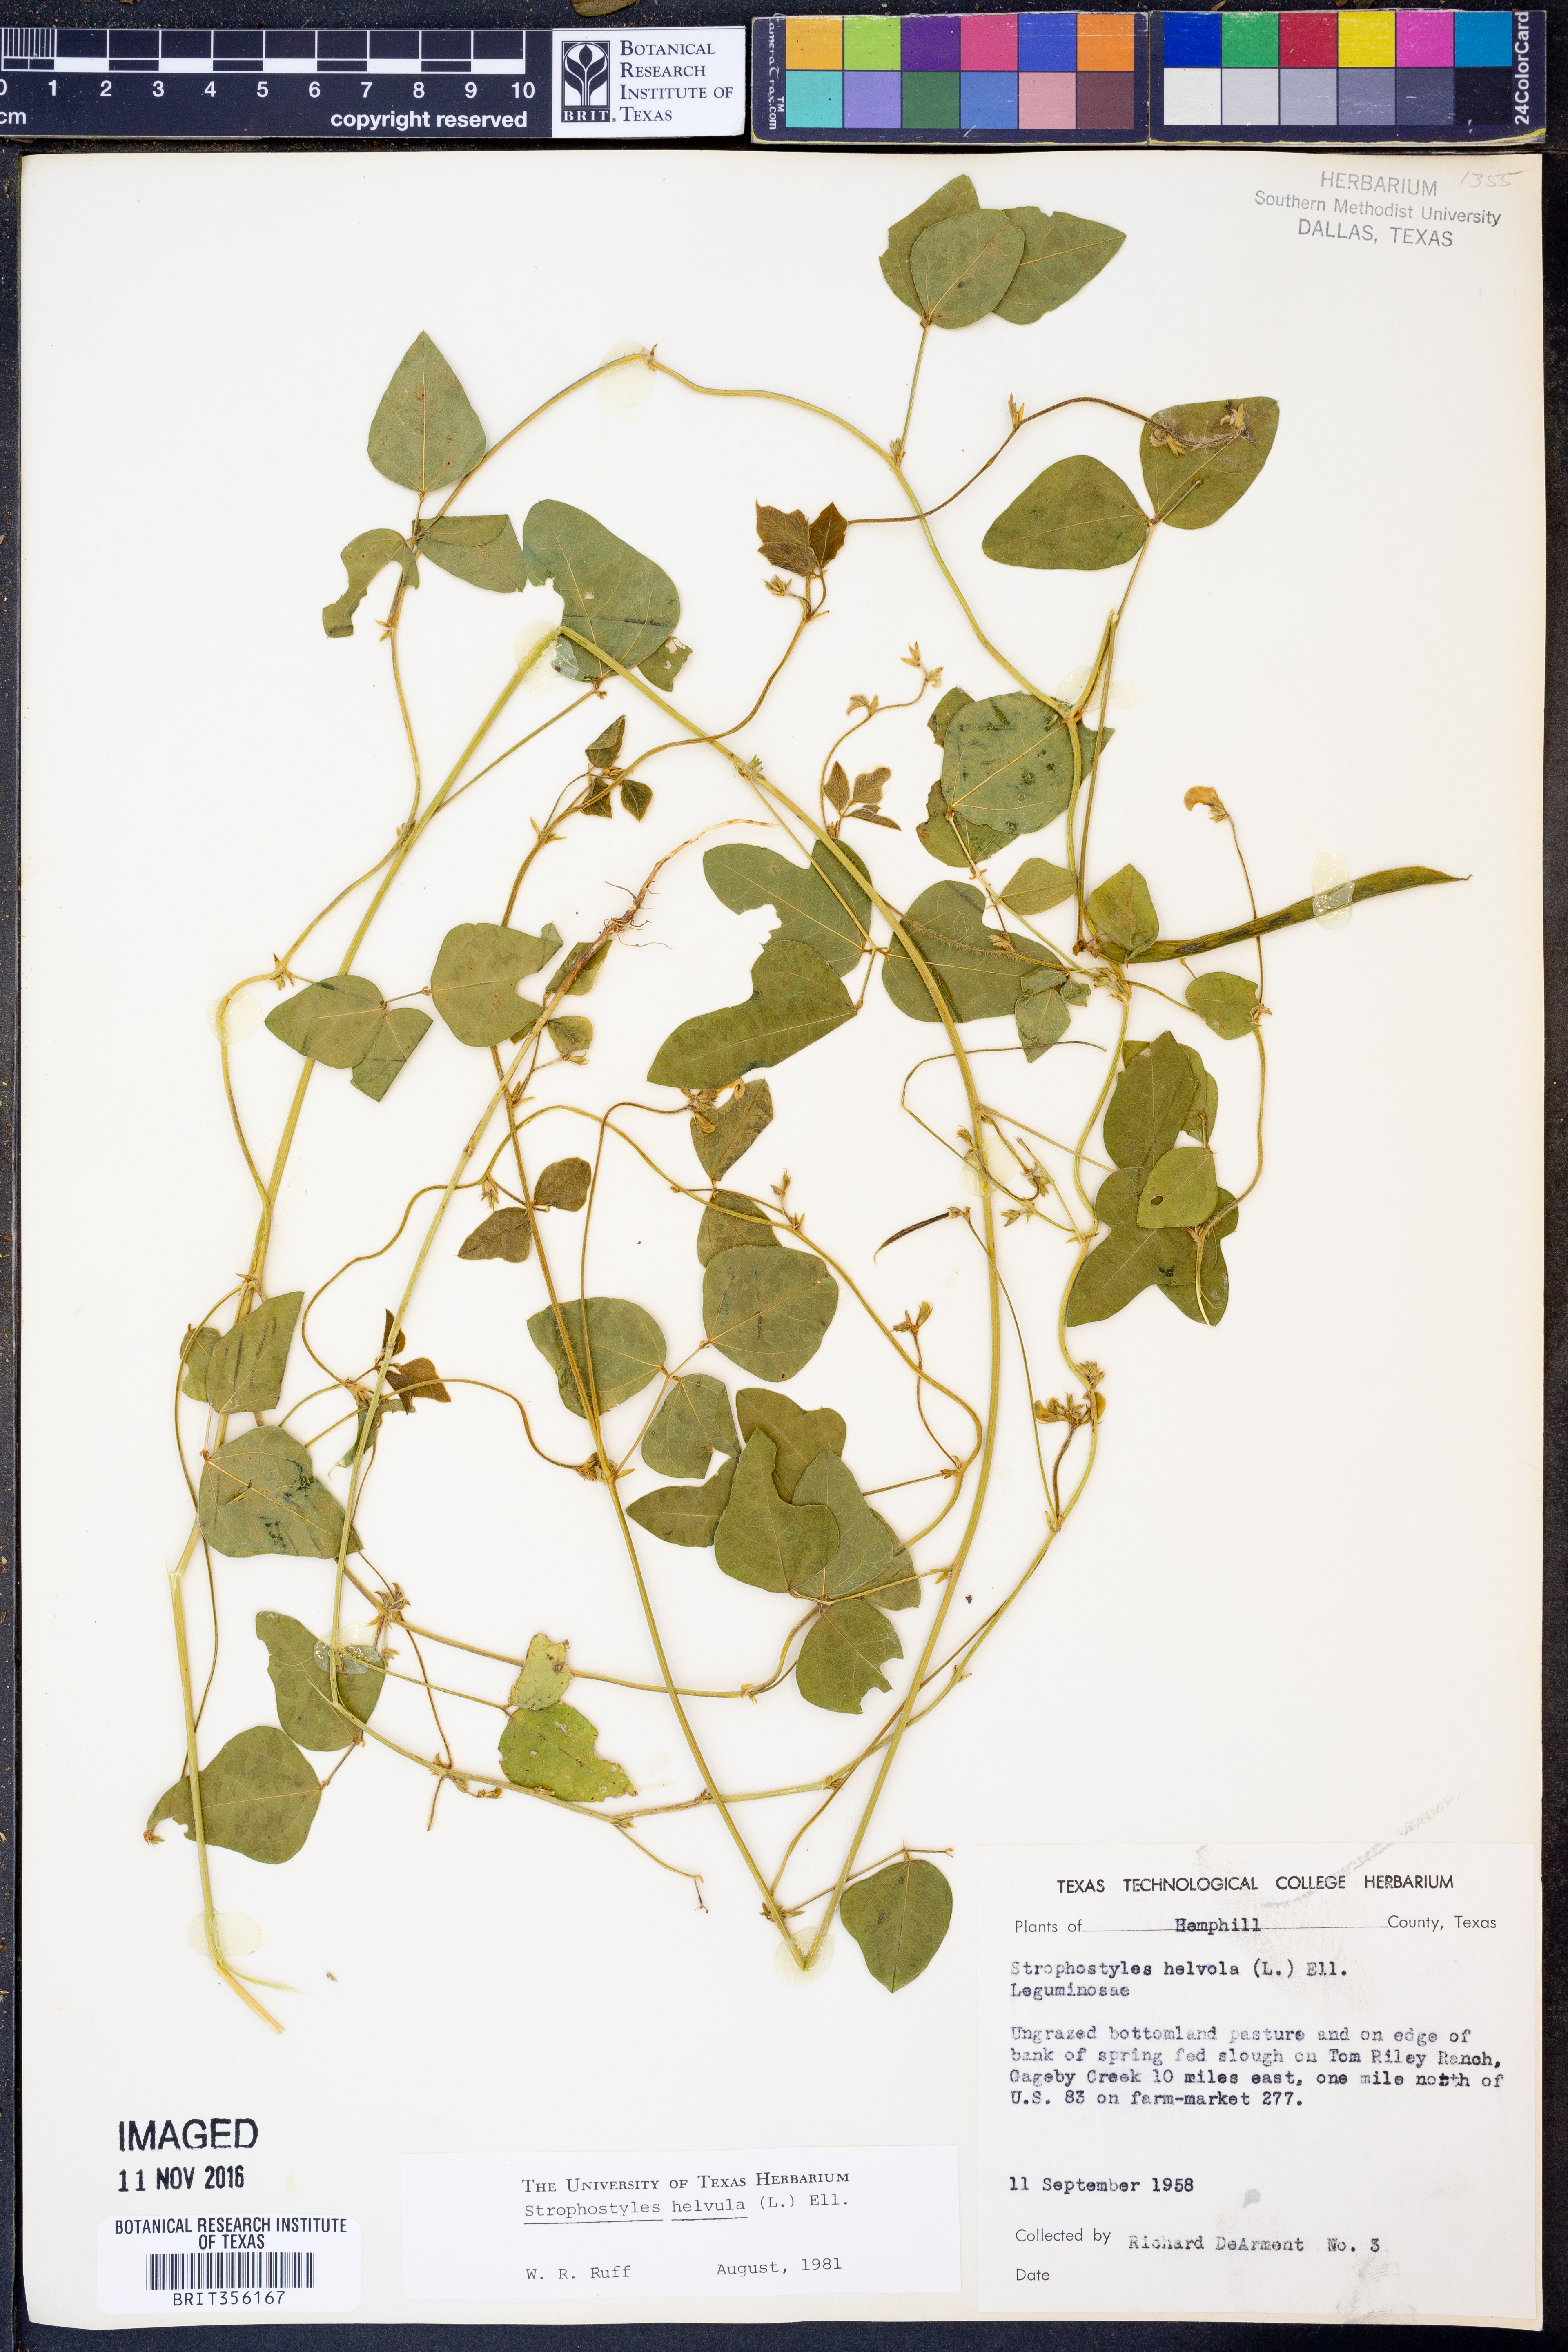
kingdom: Plantae
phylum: Tracheophyta
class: Magnoliopsida
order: Fabales
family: Fabaceae
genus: Strophostyles
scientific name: Strophostyles helvula
